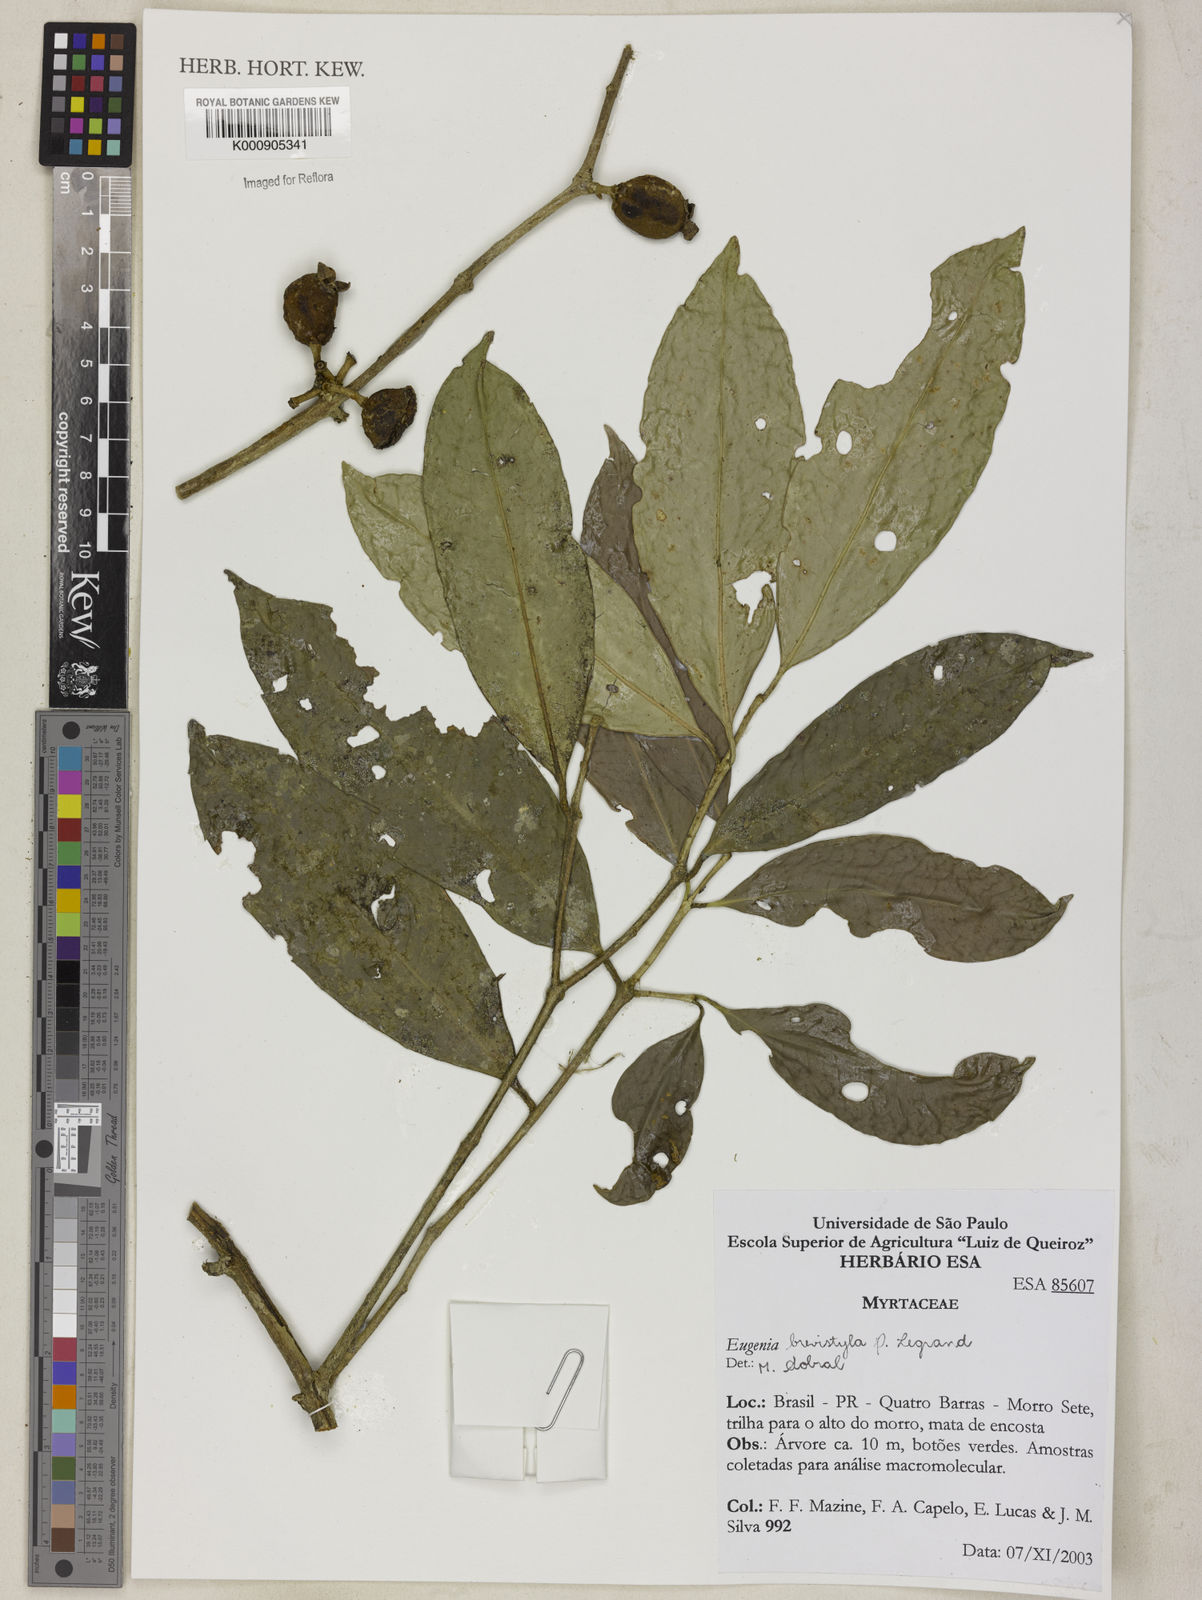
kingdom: Plantae
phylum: Tracheophyta
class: Magnoliopsida
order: Myrtales
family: Myrtaceae
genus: Eugenia
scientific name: Eugenia brevistyla
